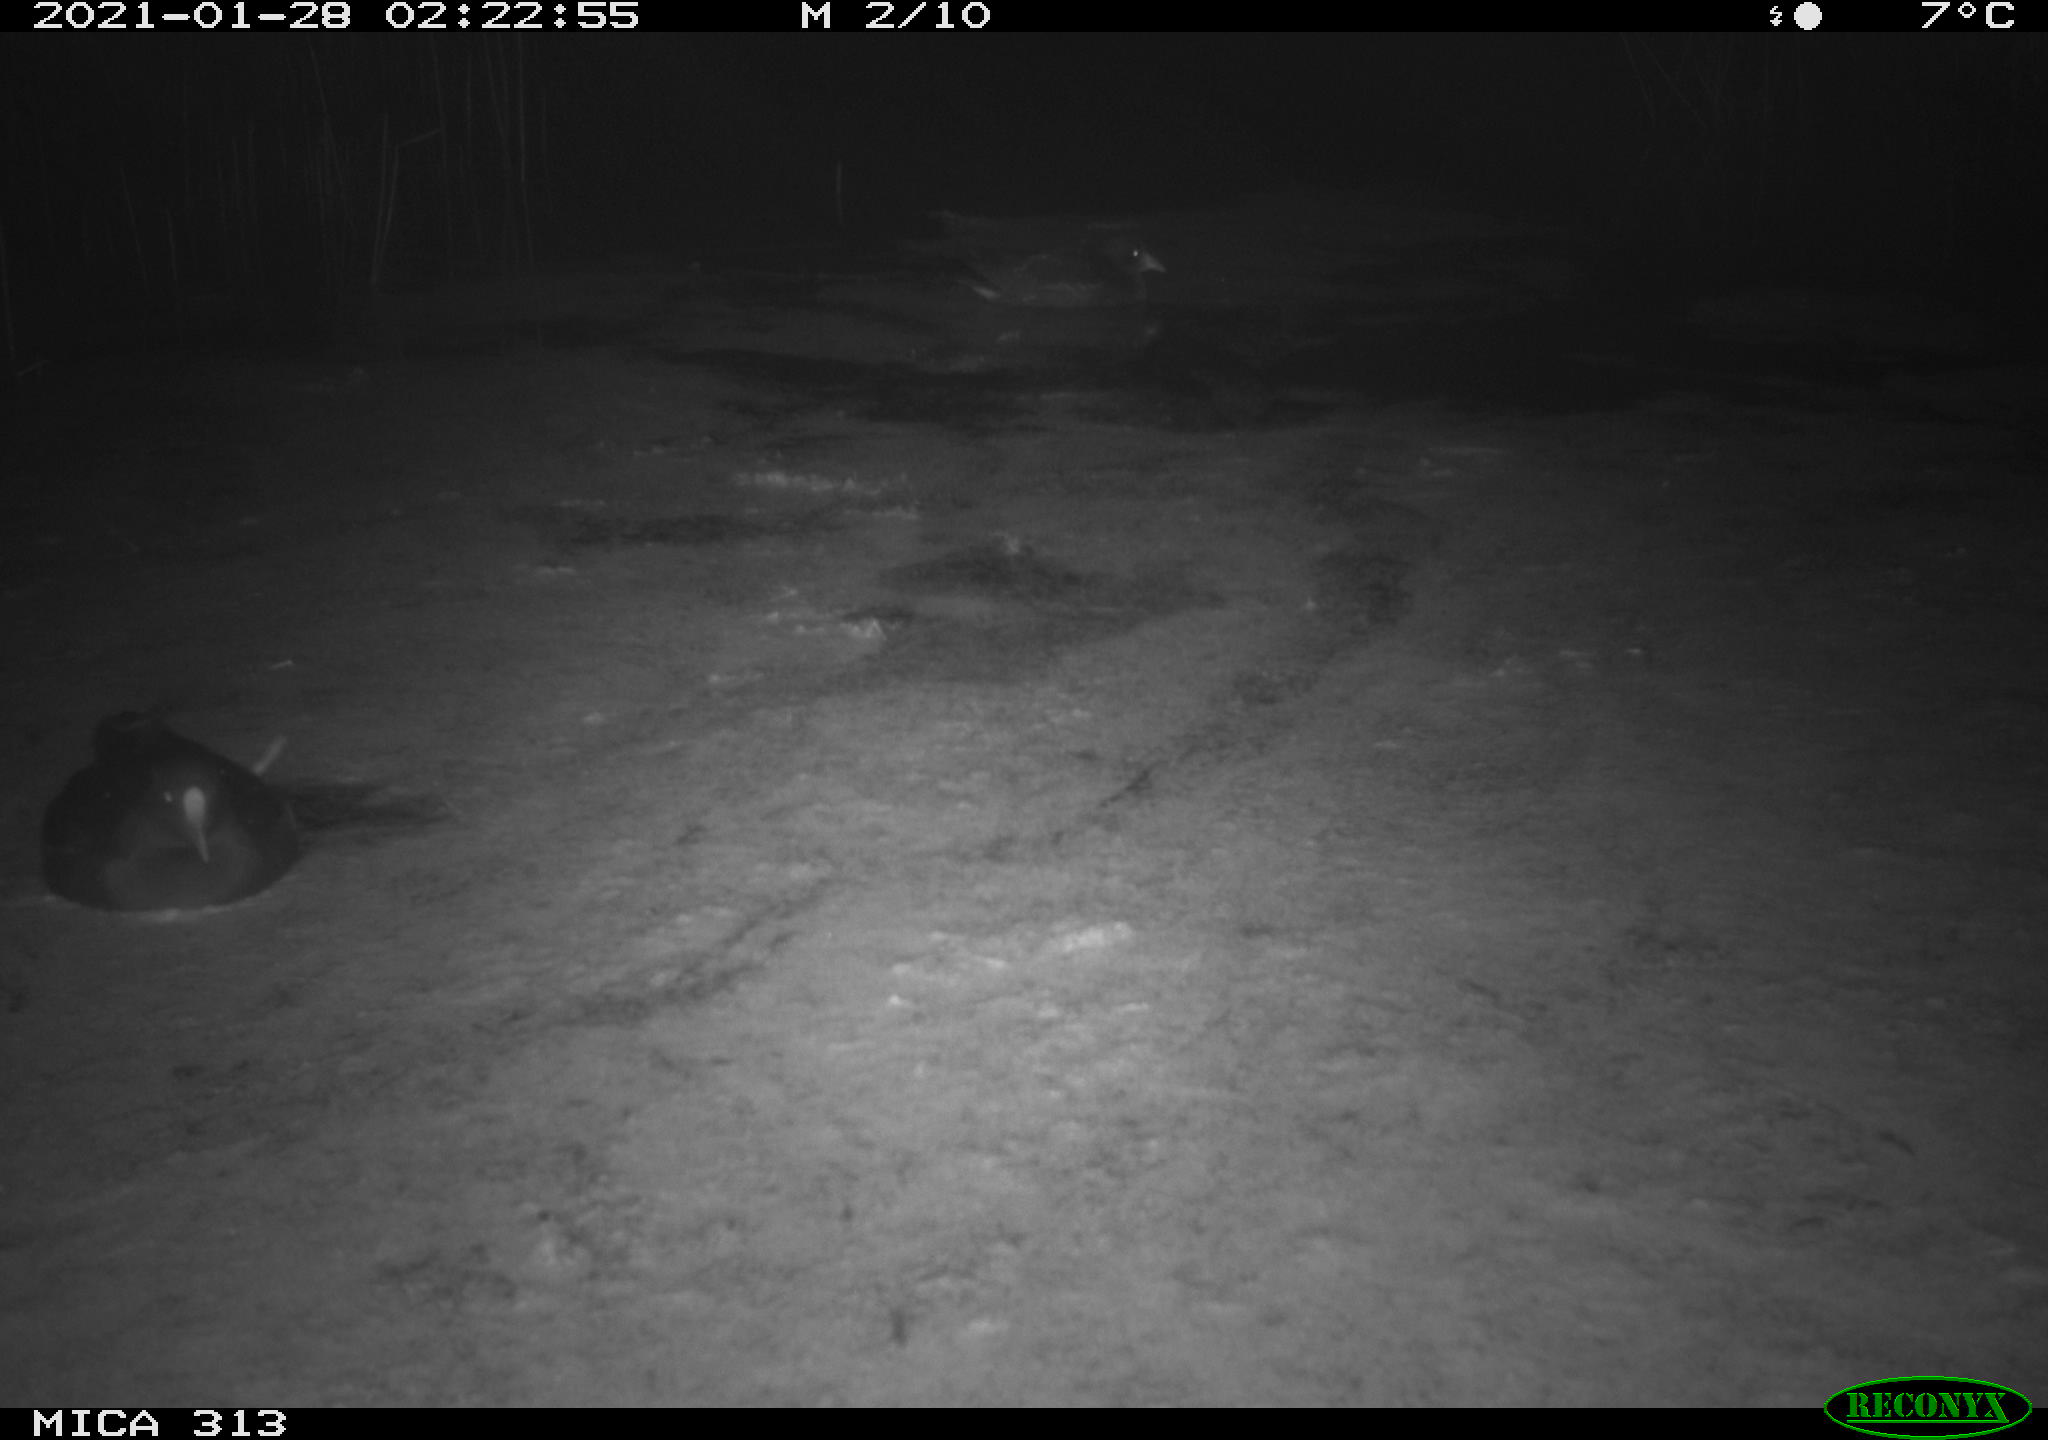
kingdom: Animalia
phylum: Chordata
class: Aves
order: Gruiformes
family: Rallidae
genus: Gallinula
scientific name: Gallinula chloropus
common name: Common moorhen
